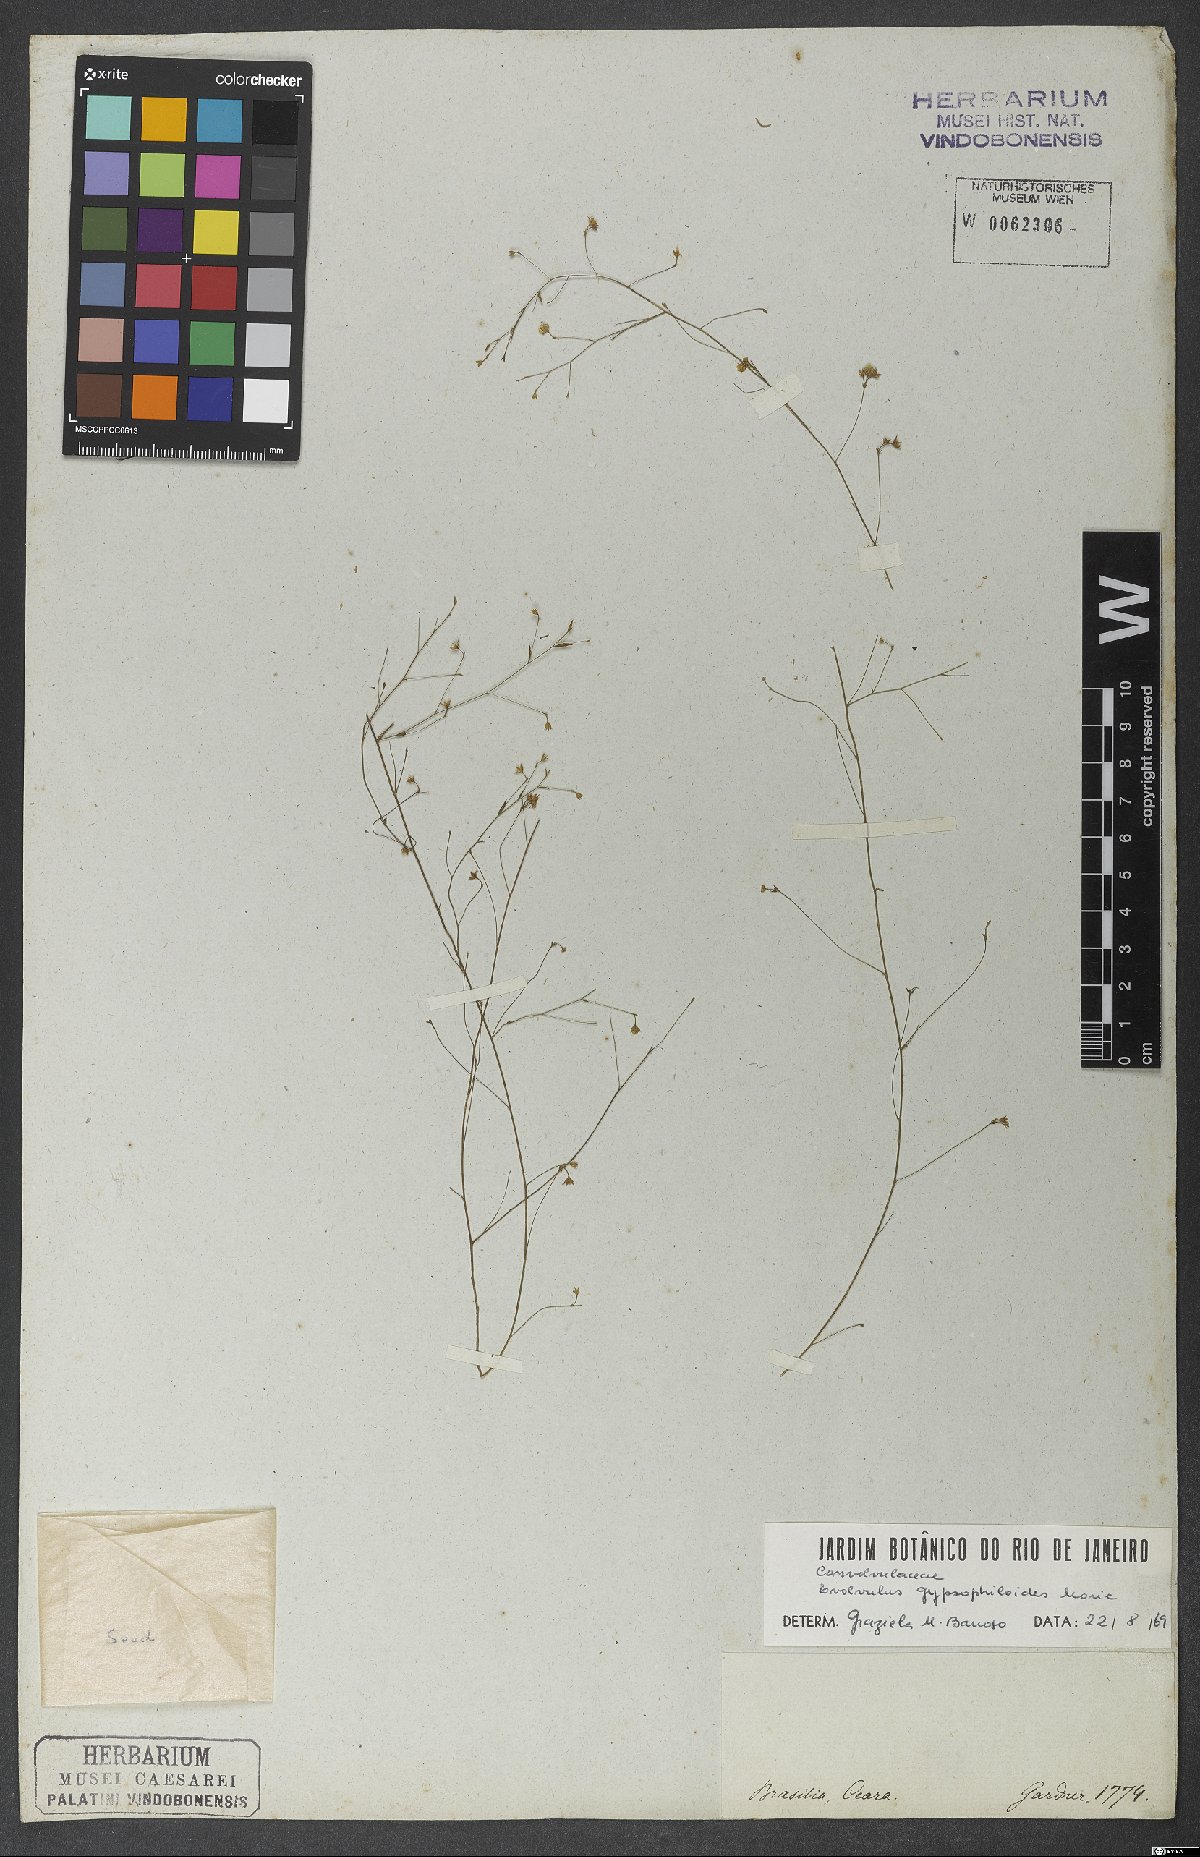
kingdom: Plantae
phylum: Tracheophyta
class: Magnoliopsida
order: Solanales
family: Convolvulaceae
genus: Evolvulus
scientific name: Evolvulus gypsophiloides
